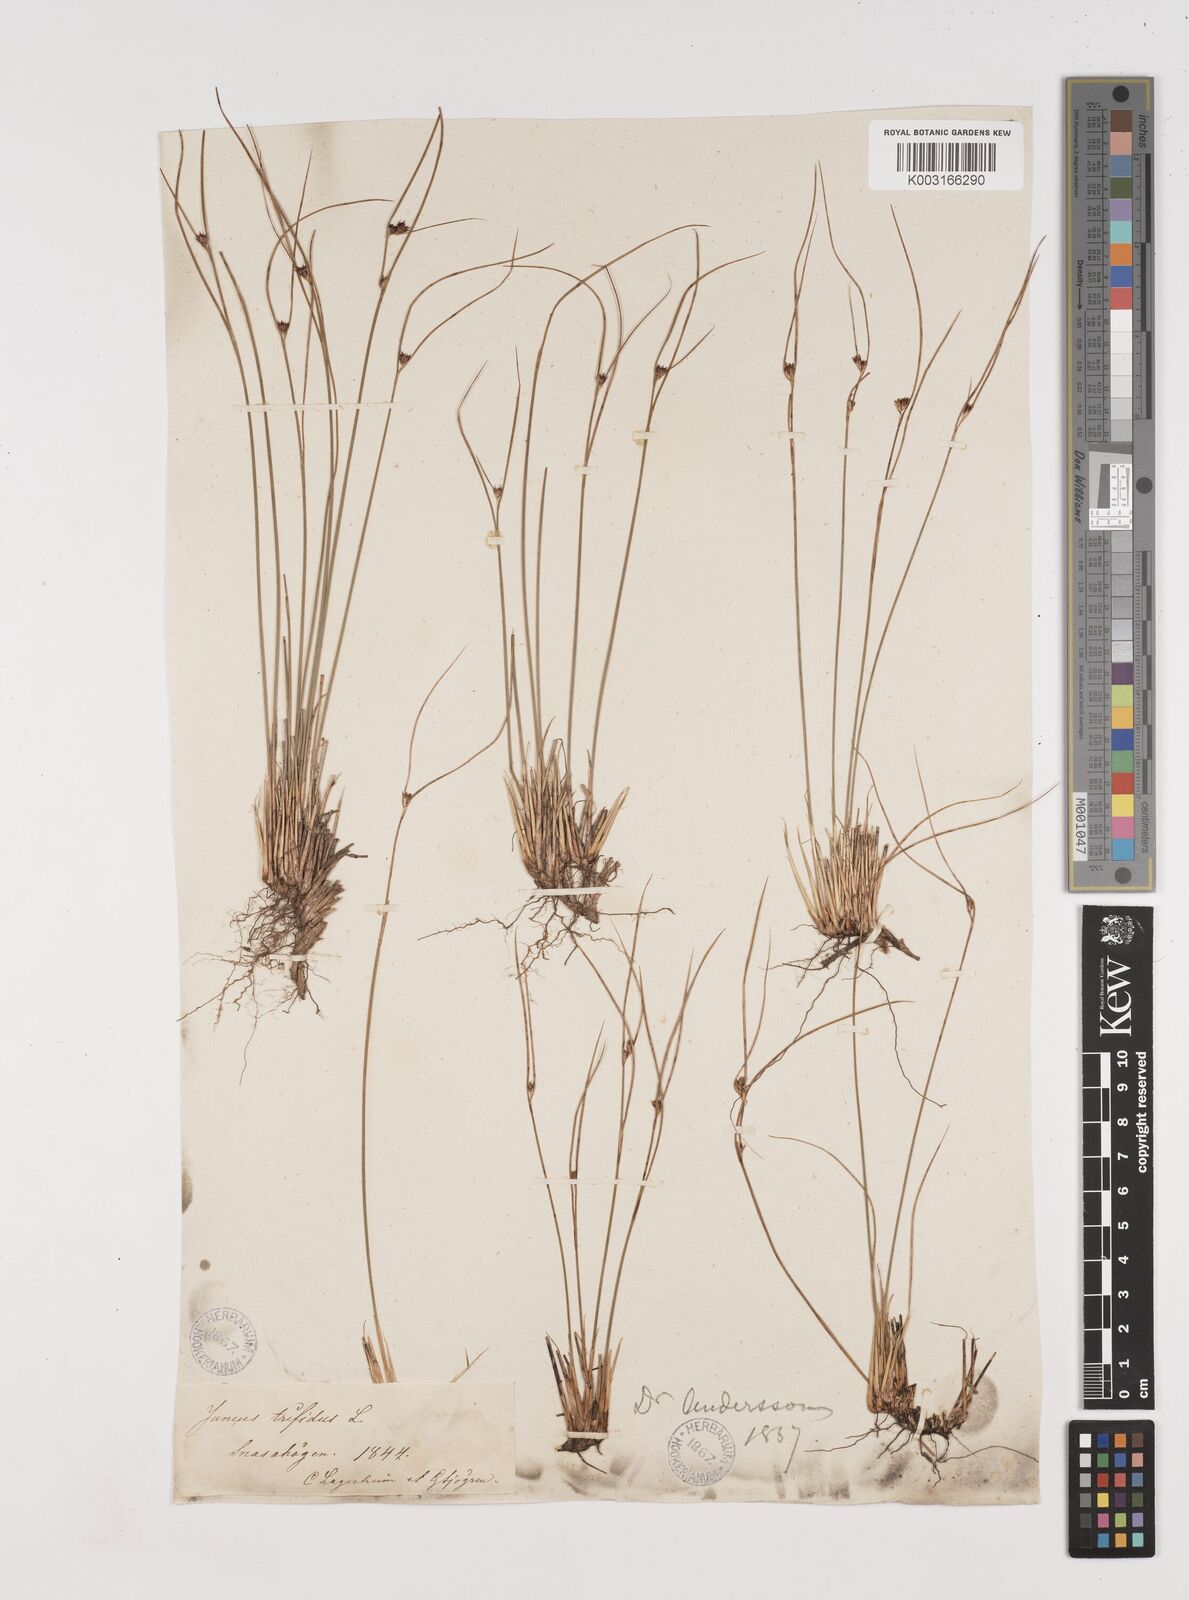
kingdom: Plantae
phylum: Tracheophyta
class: Liliopsida
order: Poales
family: Juncaceae
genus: Oreojuncus
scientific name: Oreojuncus trifidus
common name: Highland rush
